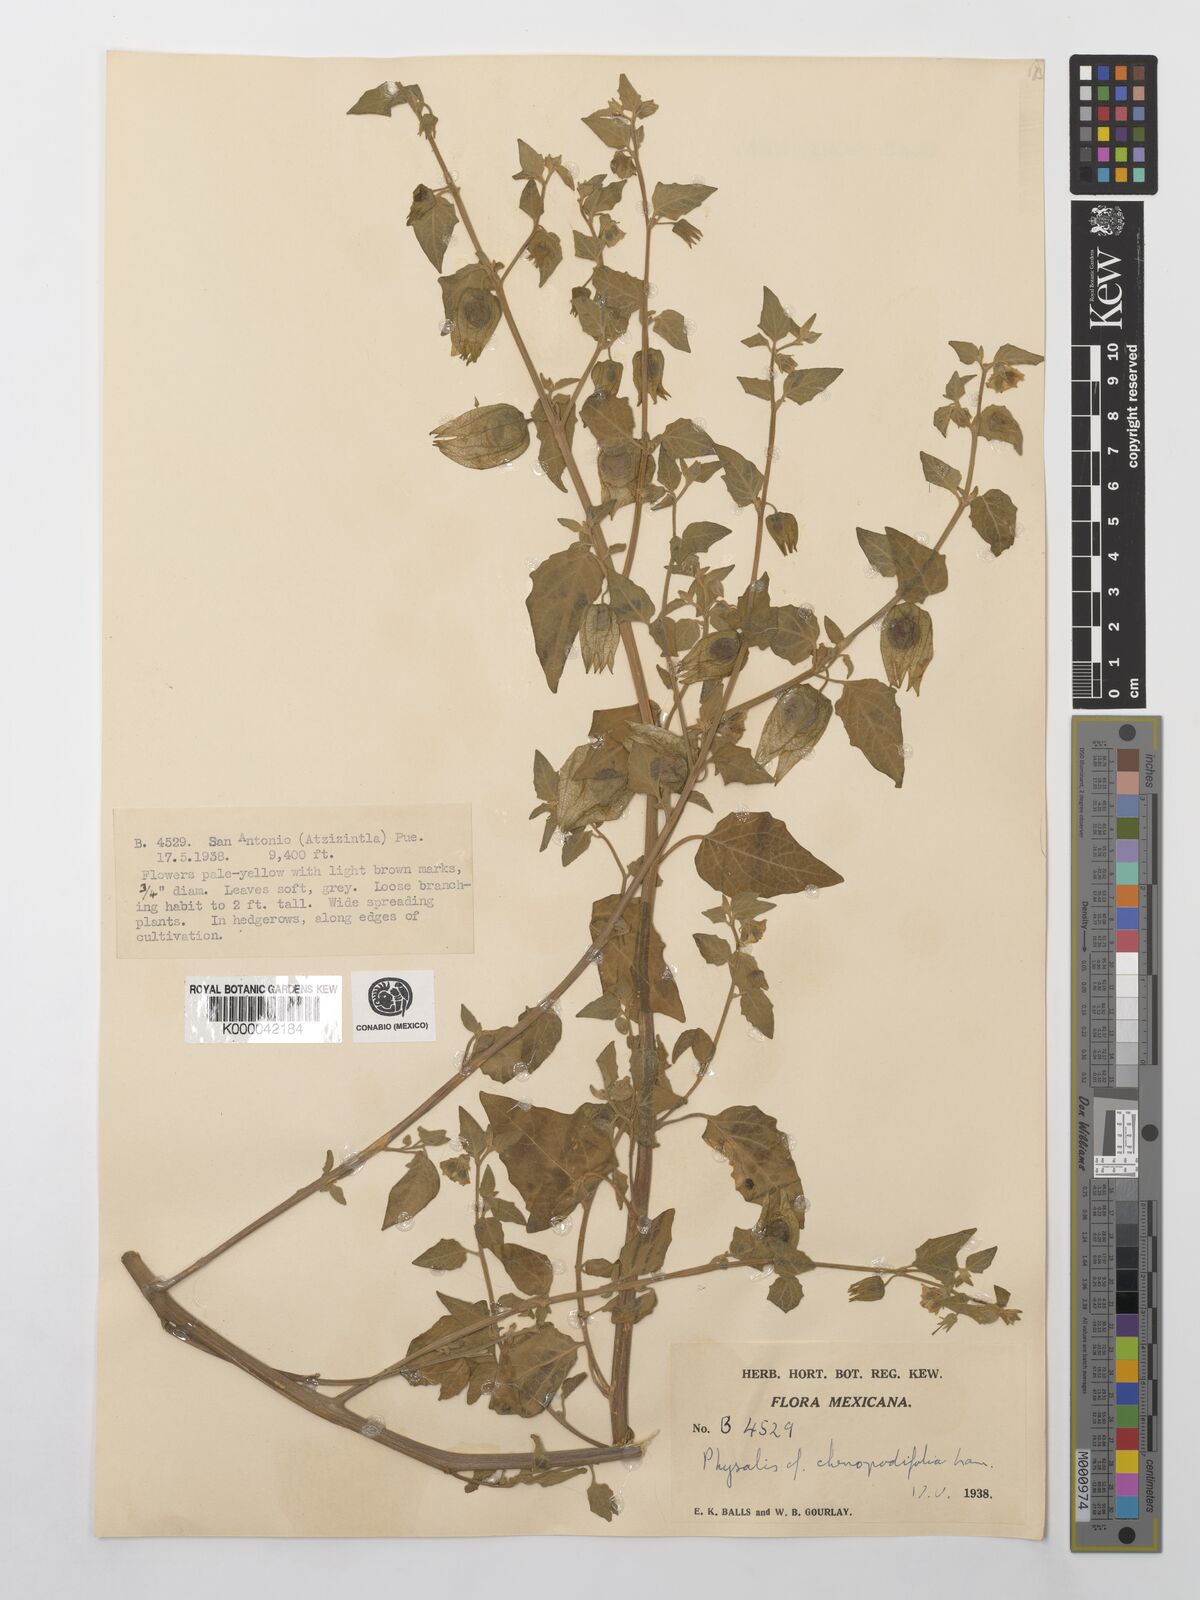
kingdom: Plantae
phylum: Tracheophyta
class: Magnoliopsida
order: Solanales
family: Solanaceae
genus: Physalis
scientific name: Physalis orizabae
